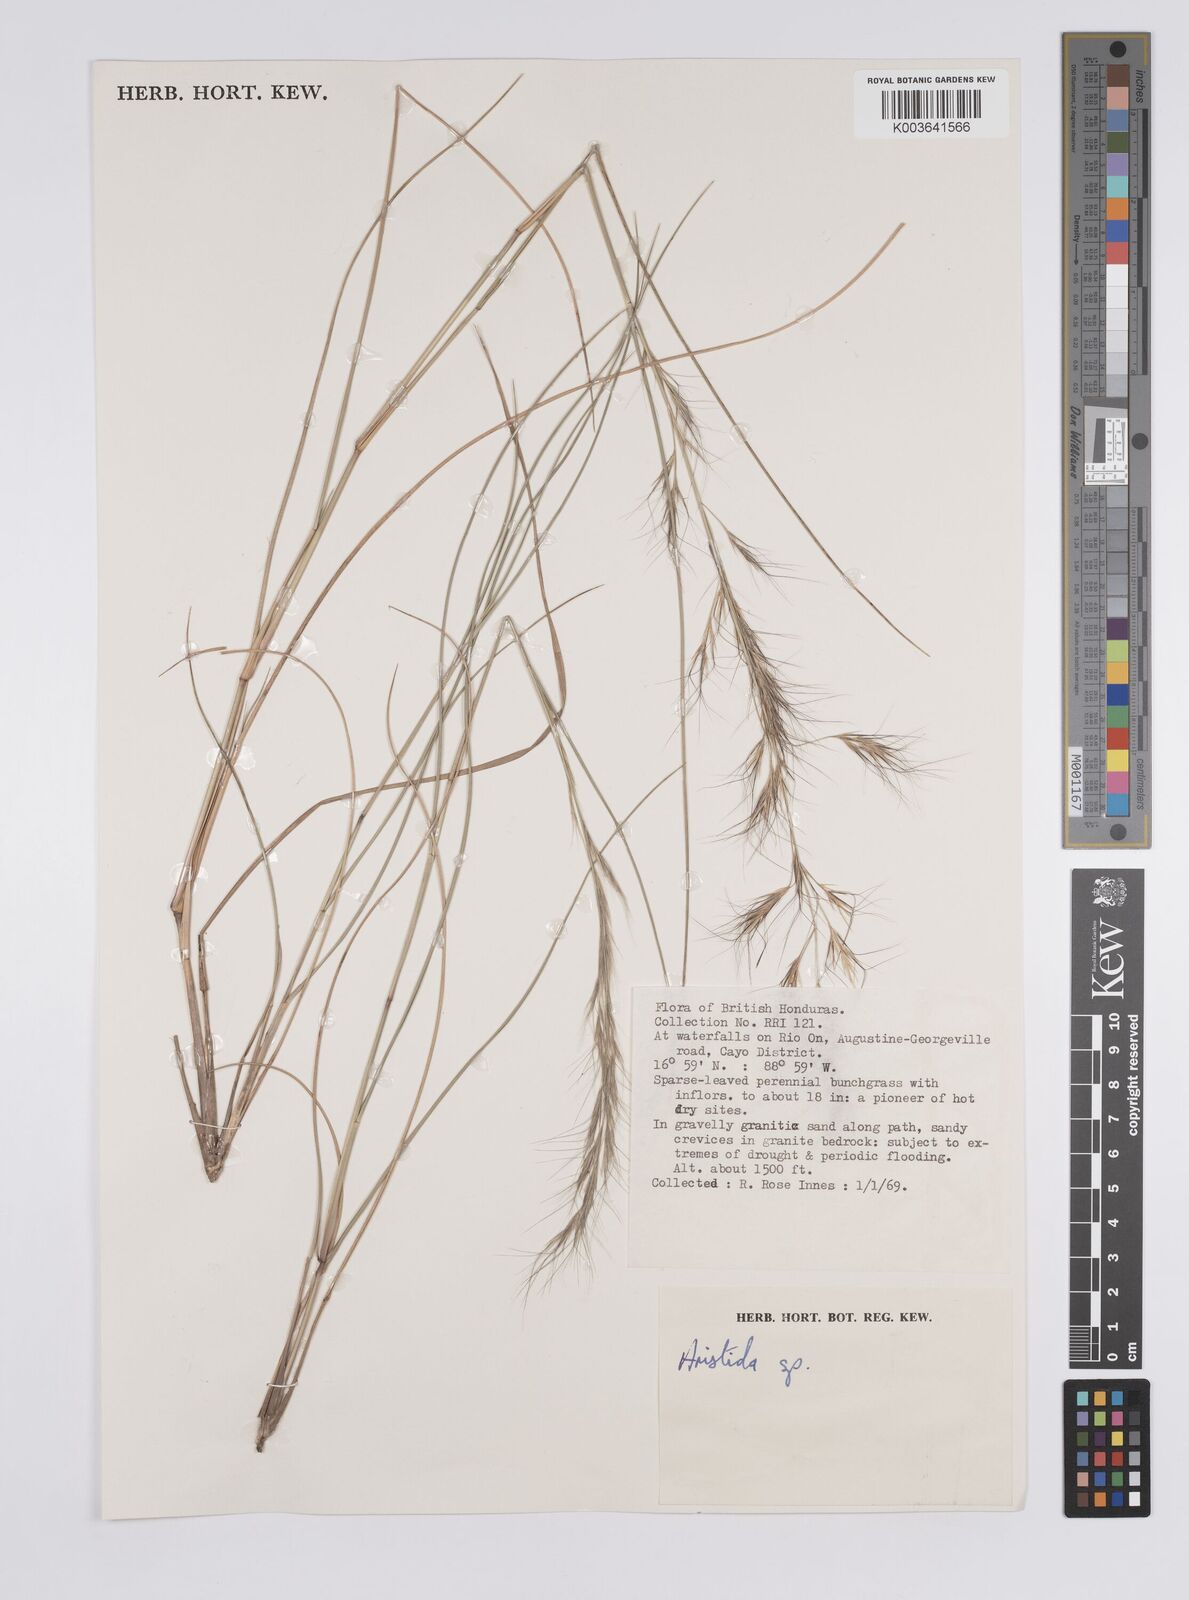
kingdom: Plantae
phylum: Tracheophyta
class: Liliopsida
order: Poales
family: Poaceae
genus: Aristida
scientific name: Aristida
